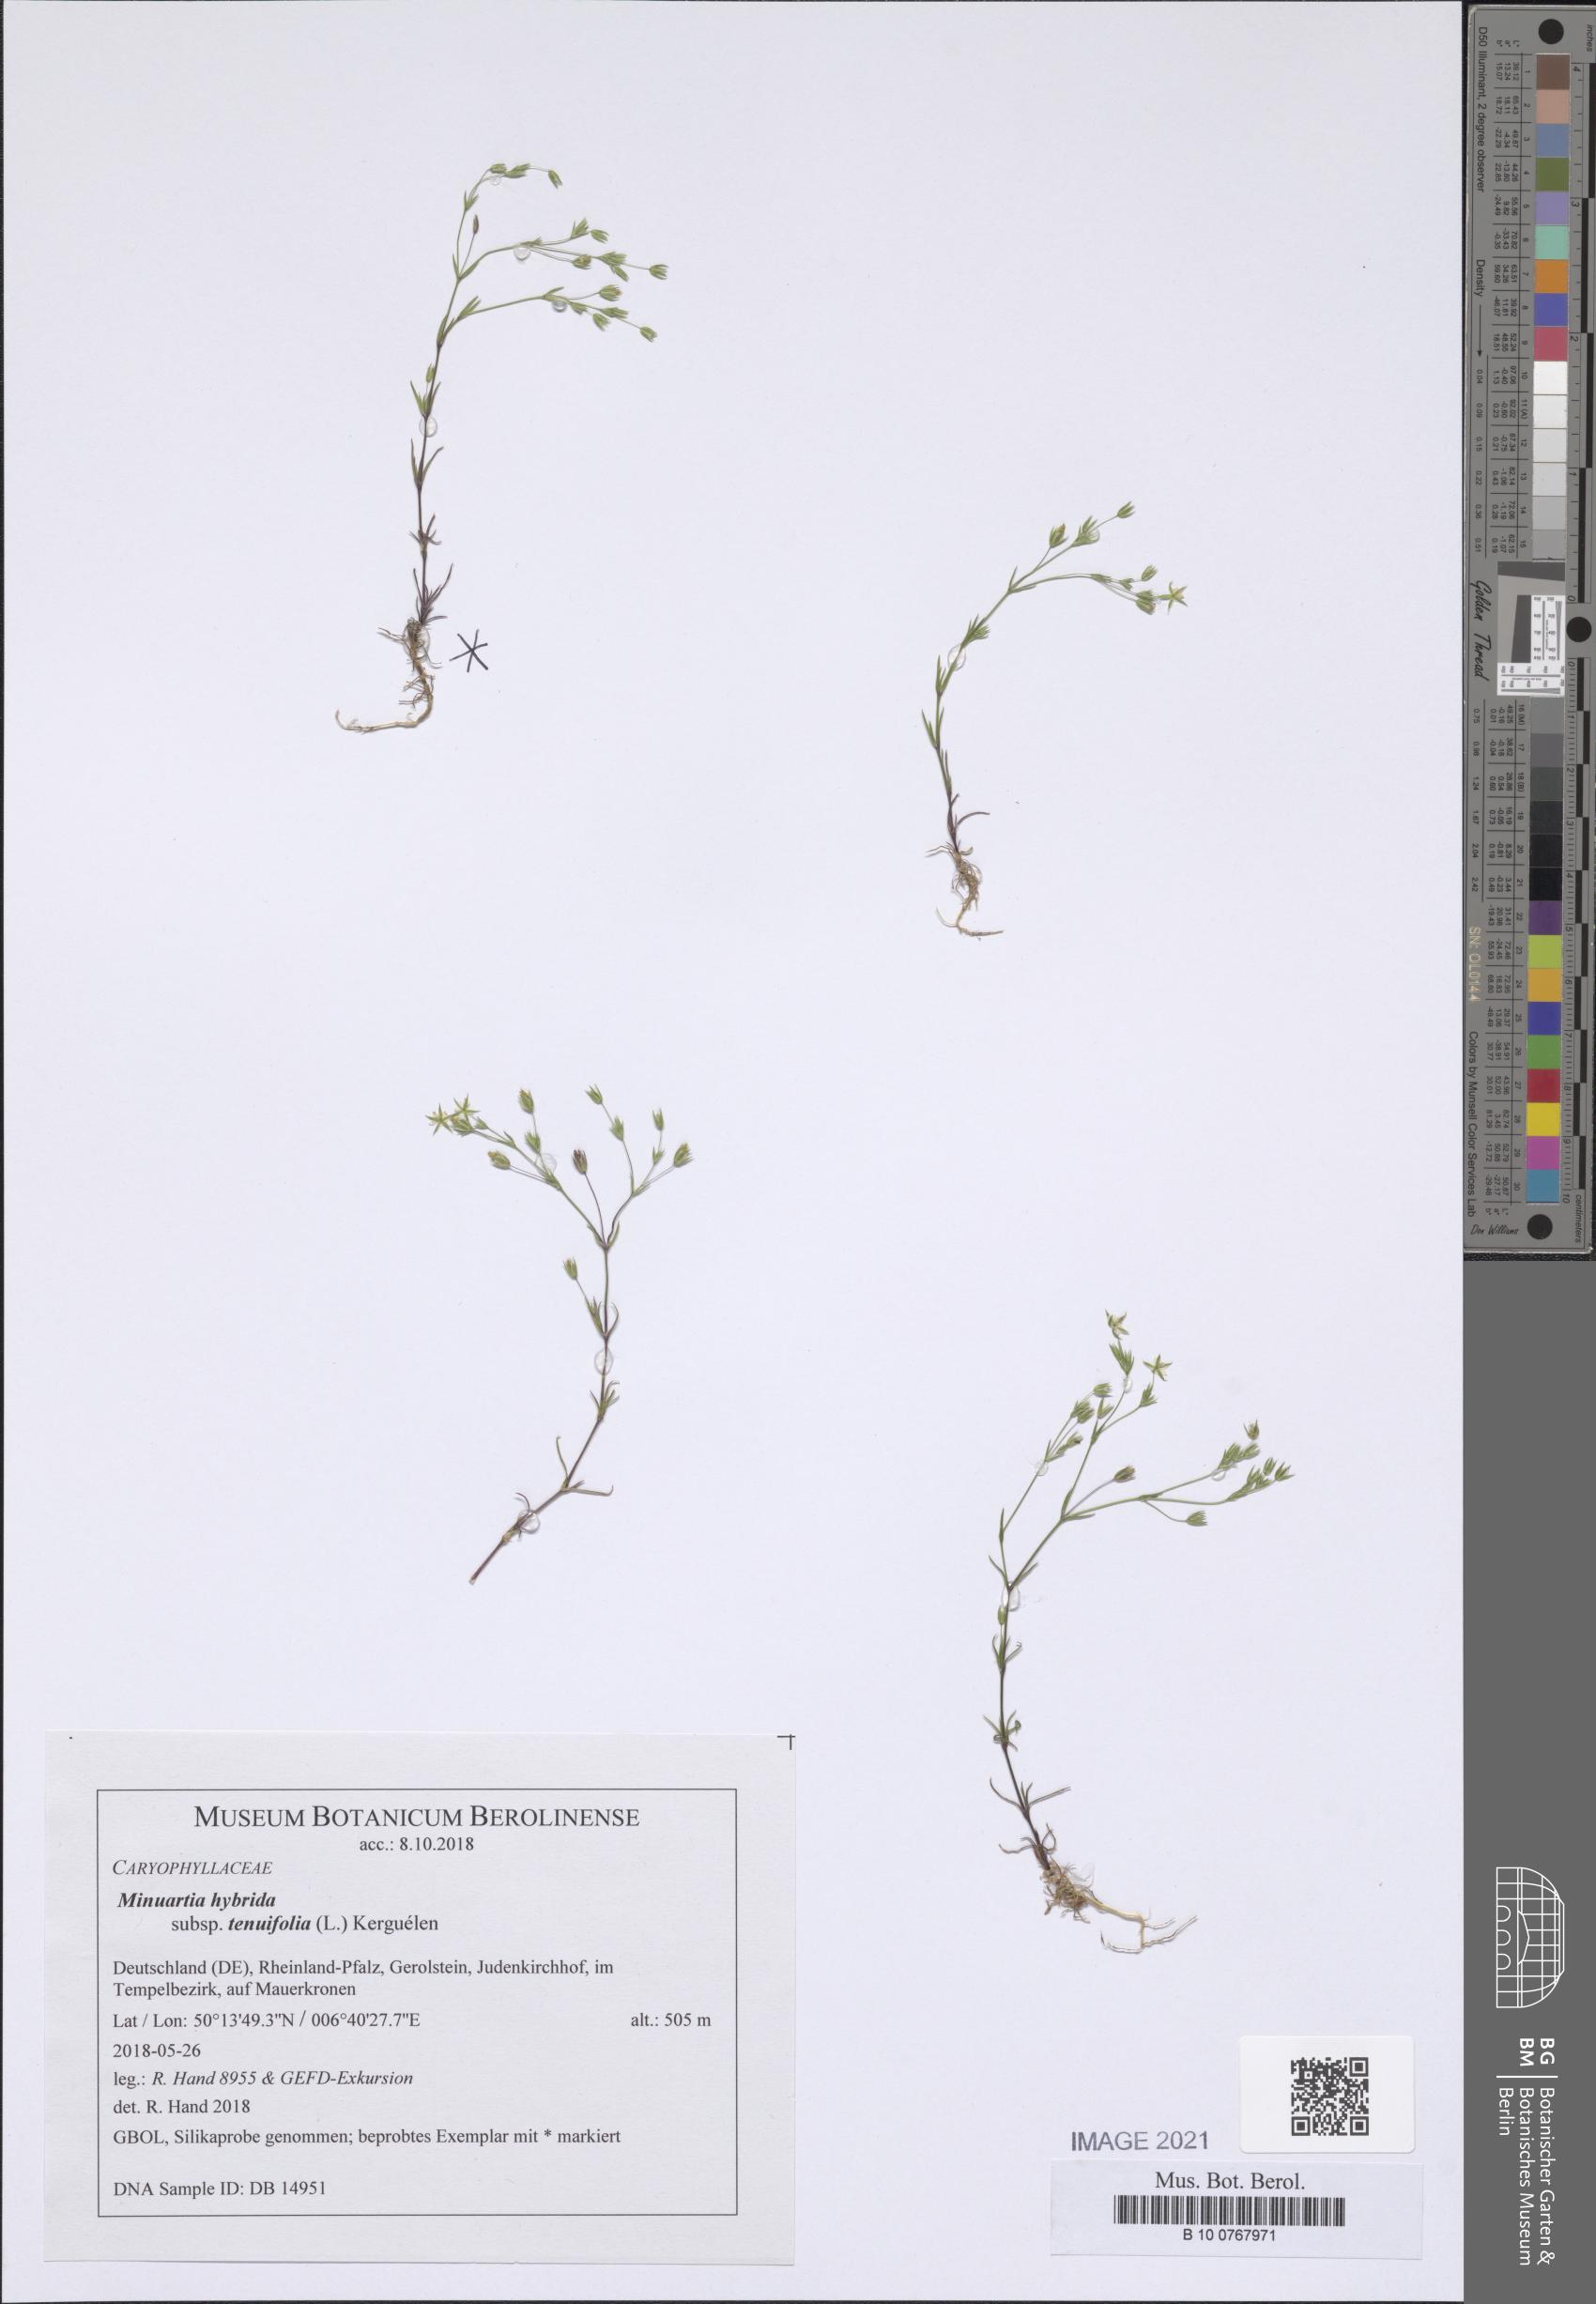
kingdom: Plantae
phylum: Tracheophyta
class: Magnoliopsida
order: Caryophyllales
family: Caryophyllaceae
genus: Sabulina
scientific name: Sabulina tenuifolia
